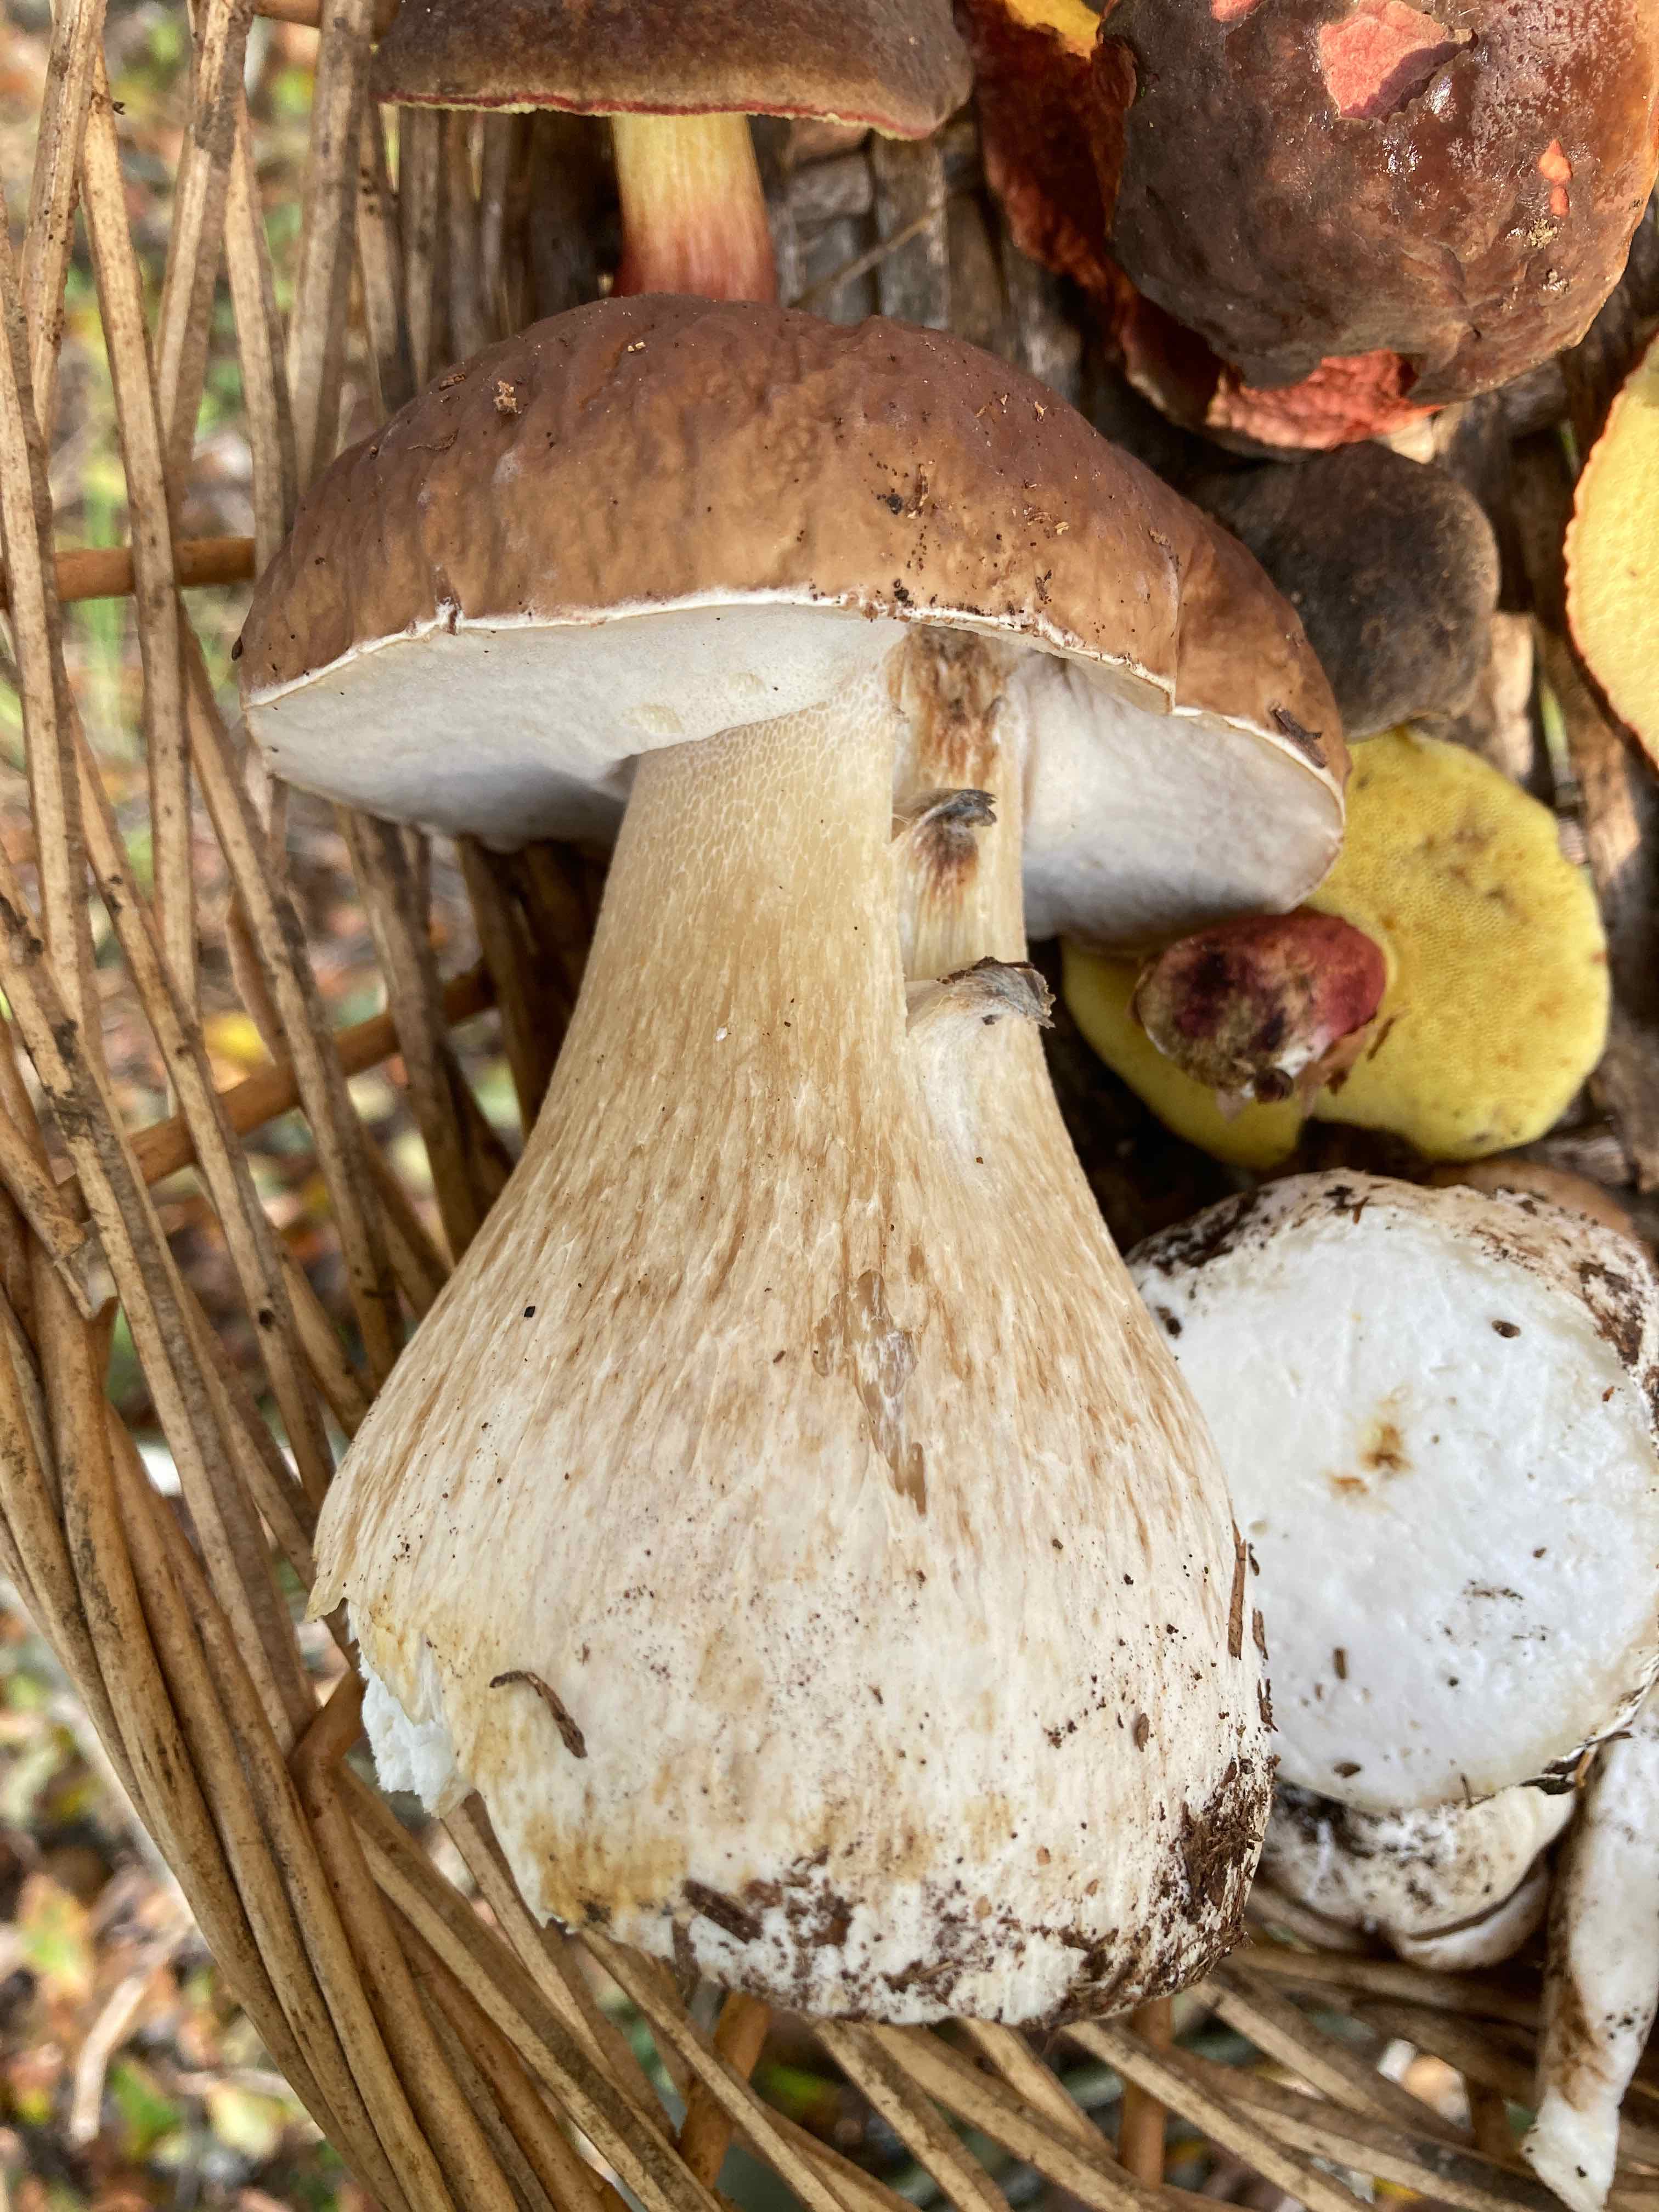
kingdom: Fungi
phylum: Basidiomycota
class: Agaricomycetes
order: Boletales
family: Boletaceae
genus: Boletus
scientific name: Boletus edulis
